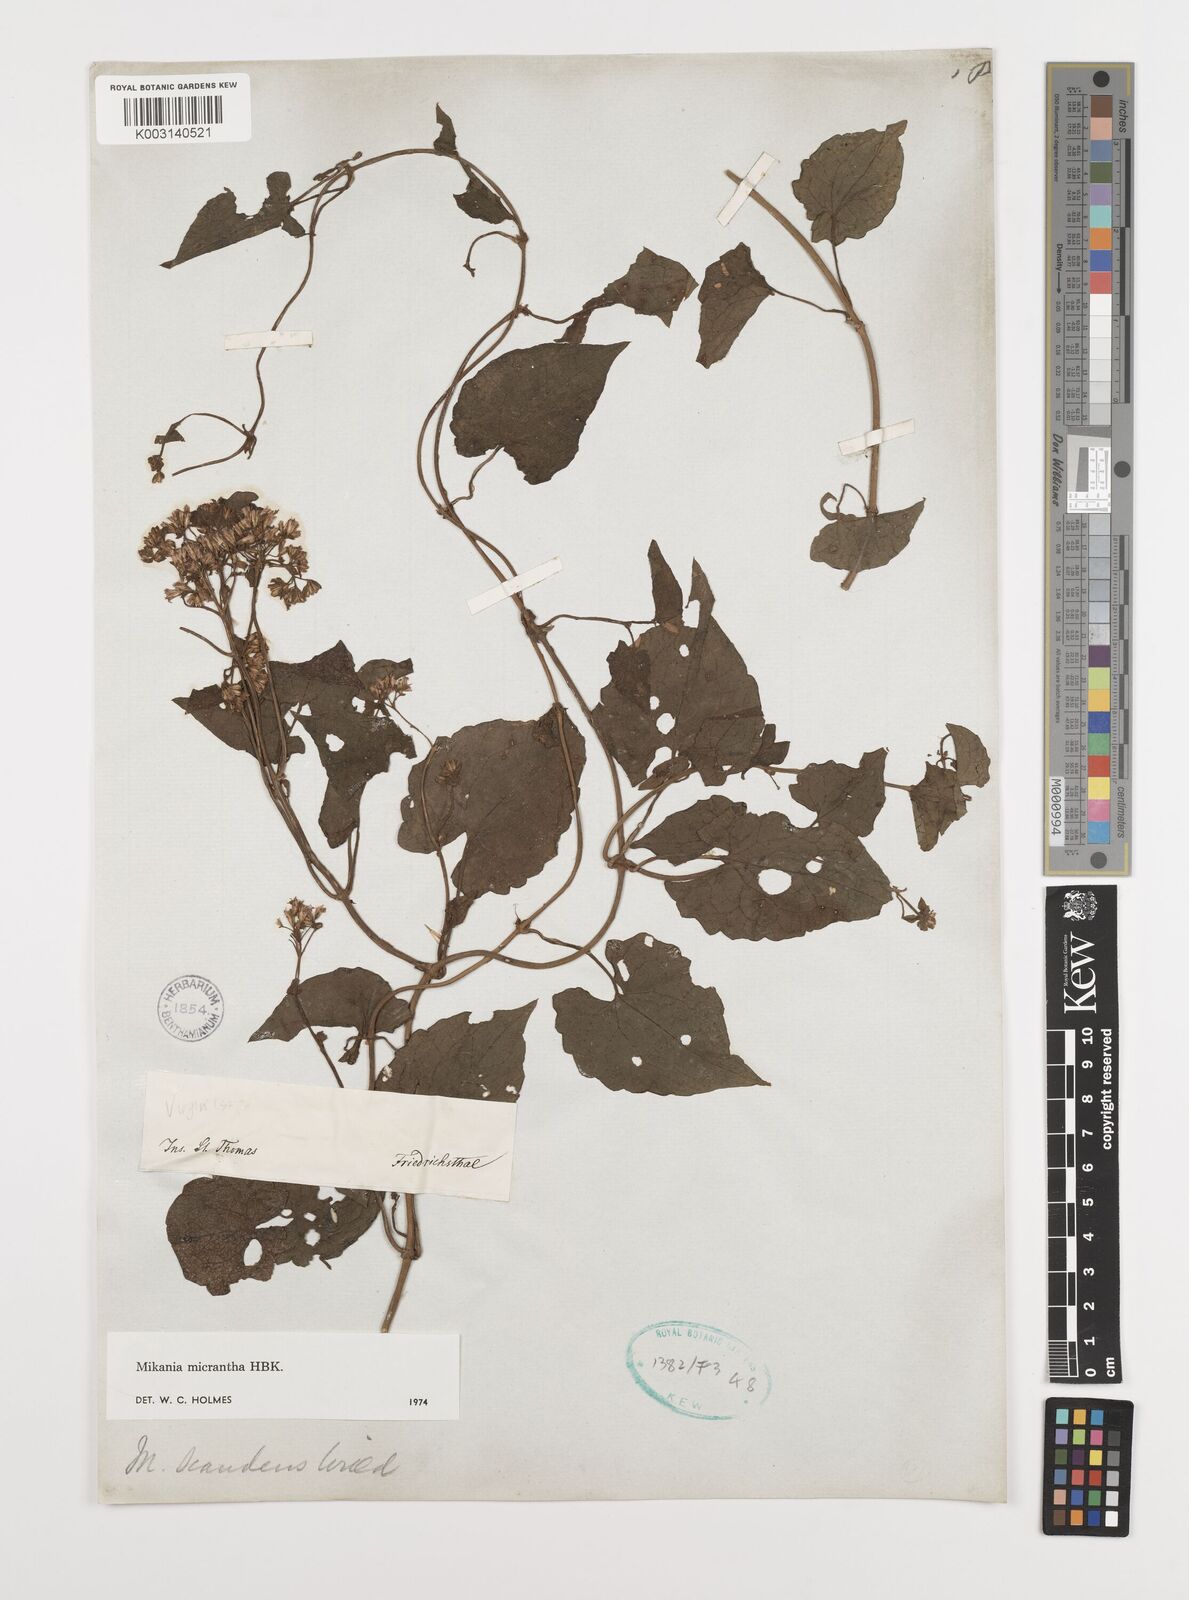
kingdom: Plantae
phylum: Tracheophyta
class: Magnoliopsida
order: Asterales
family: Asteraceae
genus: Mikania
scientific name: Mikania micrantha
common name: Mile-a-minute
